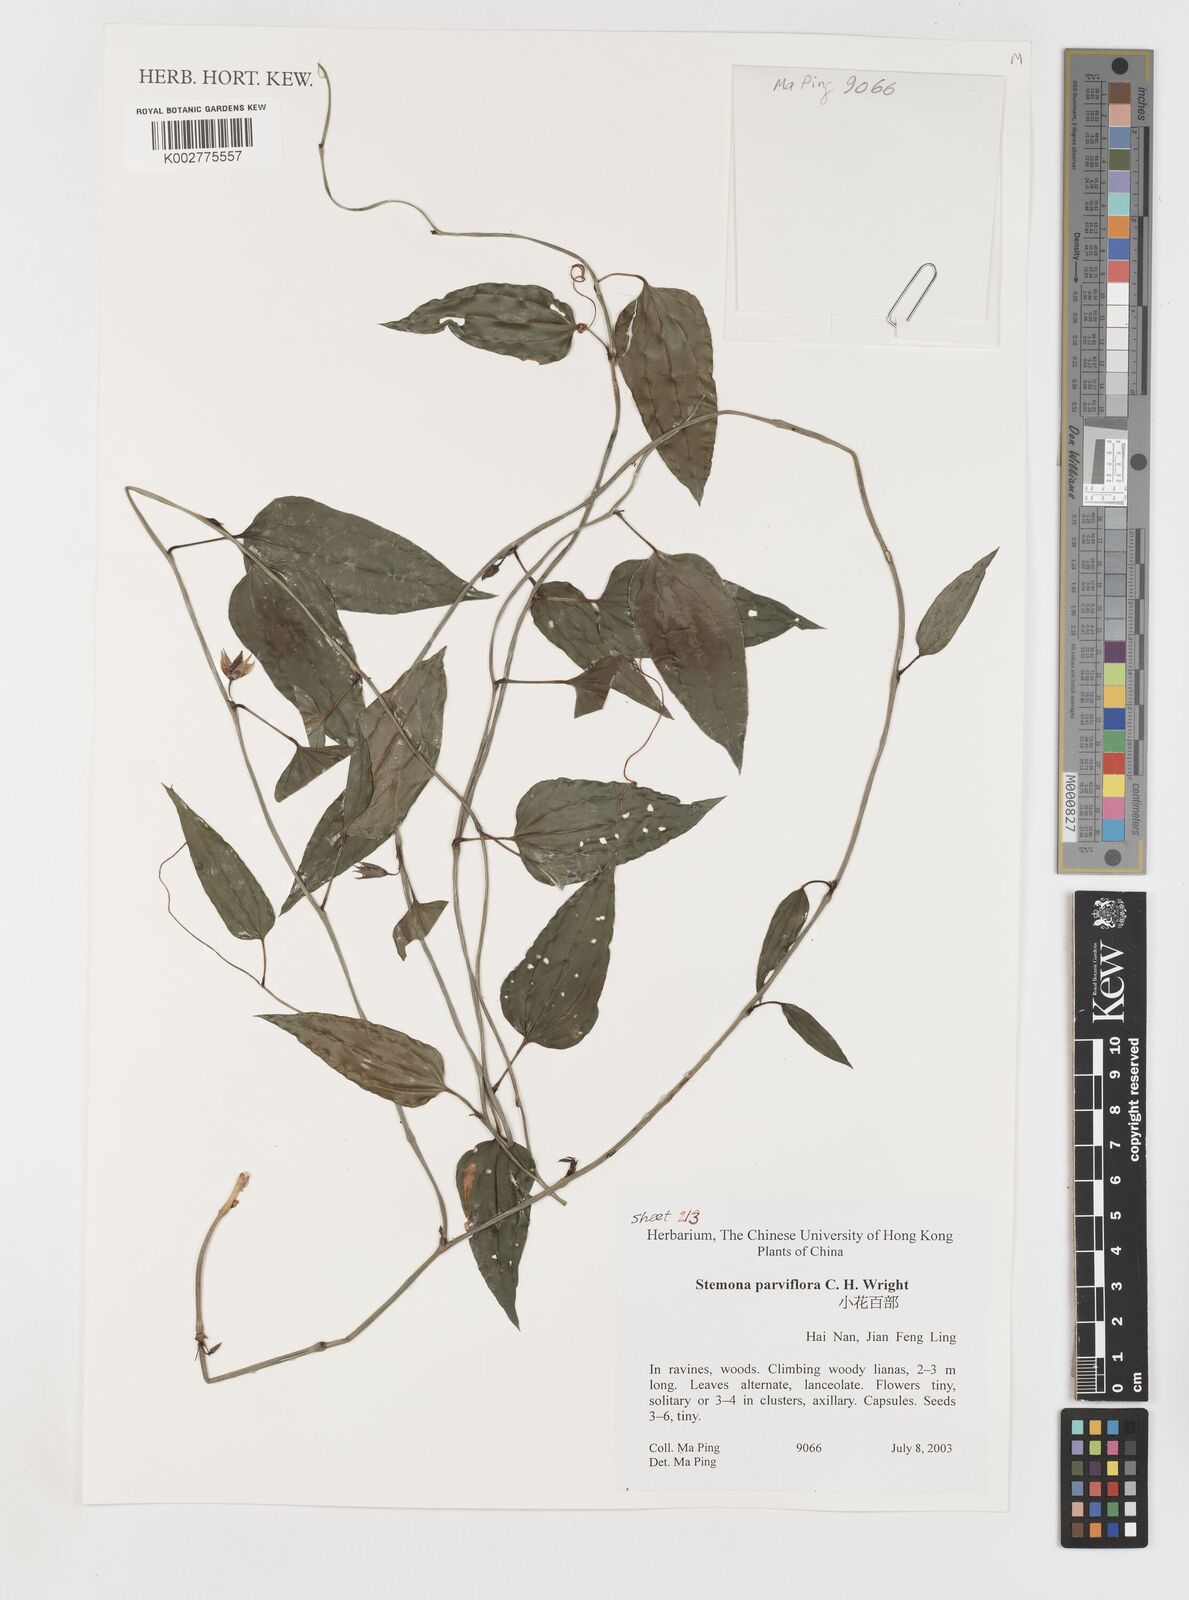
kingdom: Plantae
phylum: Tracheophyta
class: Liliopsida
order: Pandanales
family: Stemonaceae
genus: Stemona
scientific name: Stemona parviflora
